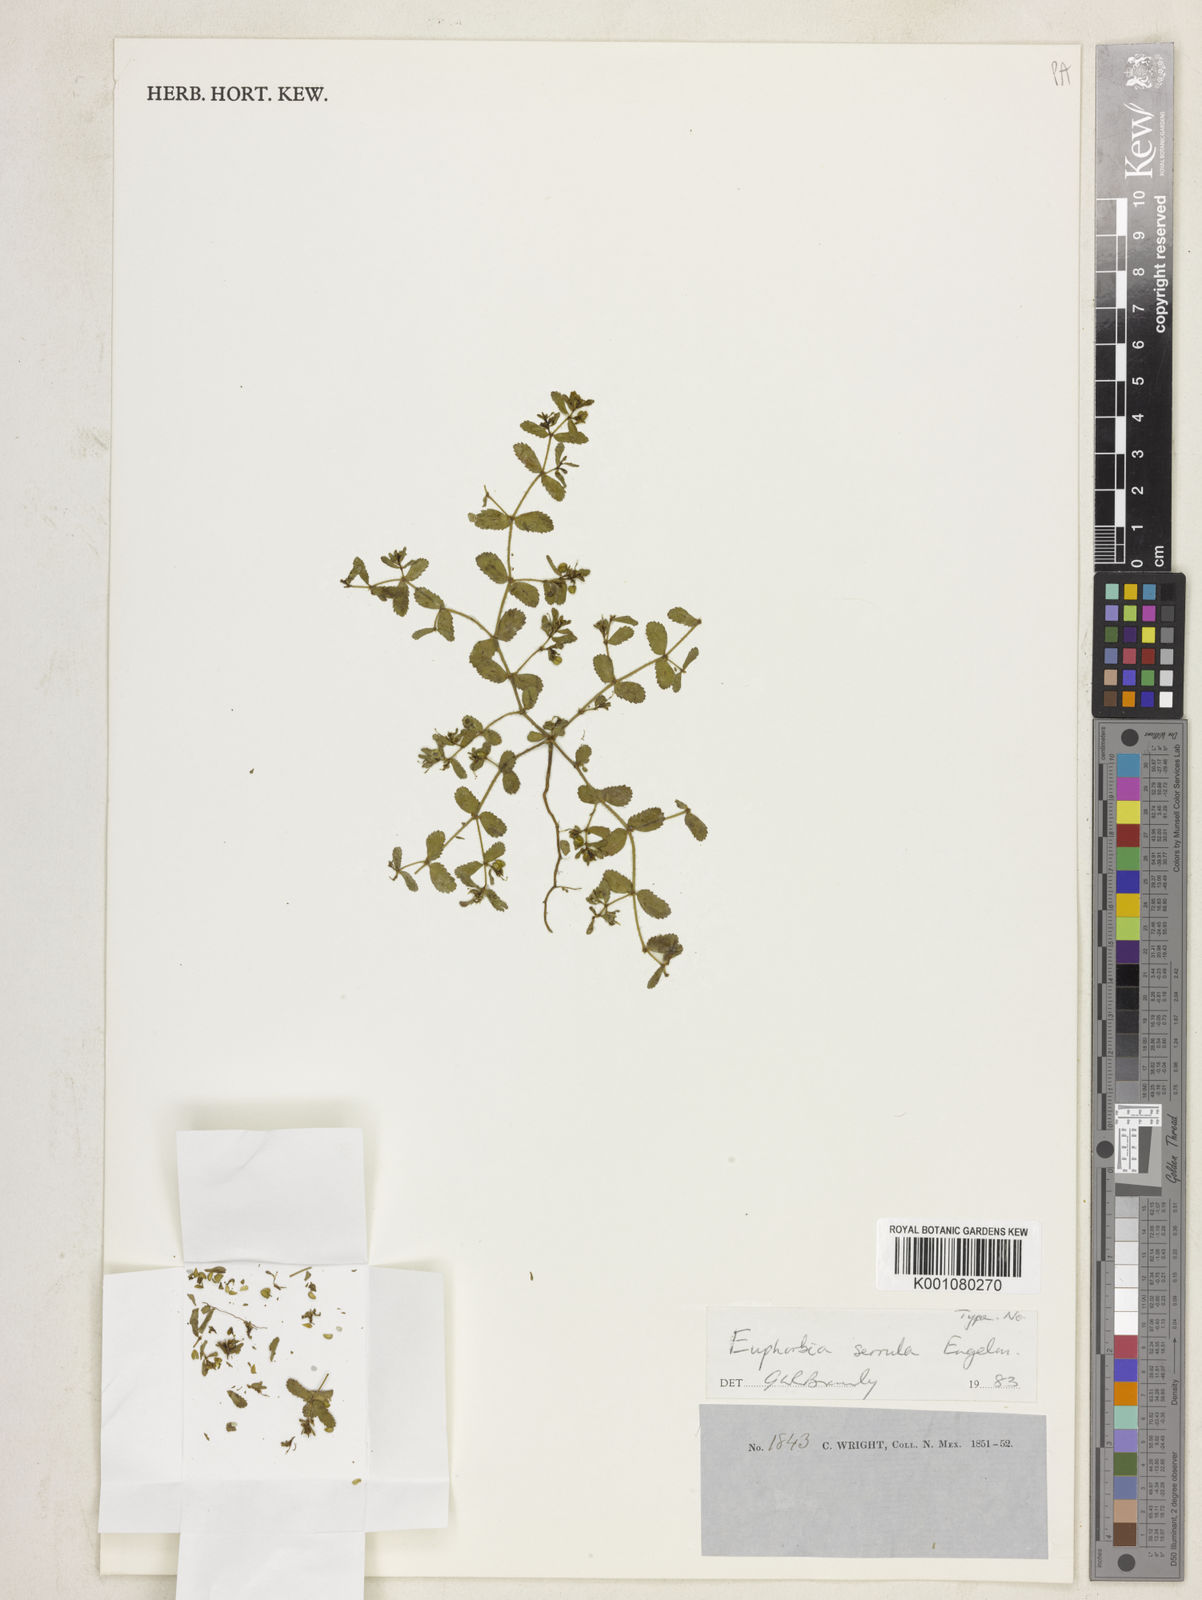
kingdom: Plantae
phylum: Tracheophyta
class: Magnoliopsida
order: Malpighiales
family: Euphorbiaceae
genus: Euphorbia
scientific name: Euphorbia serrula
